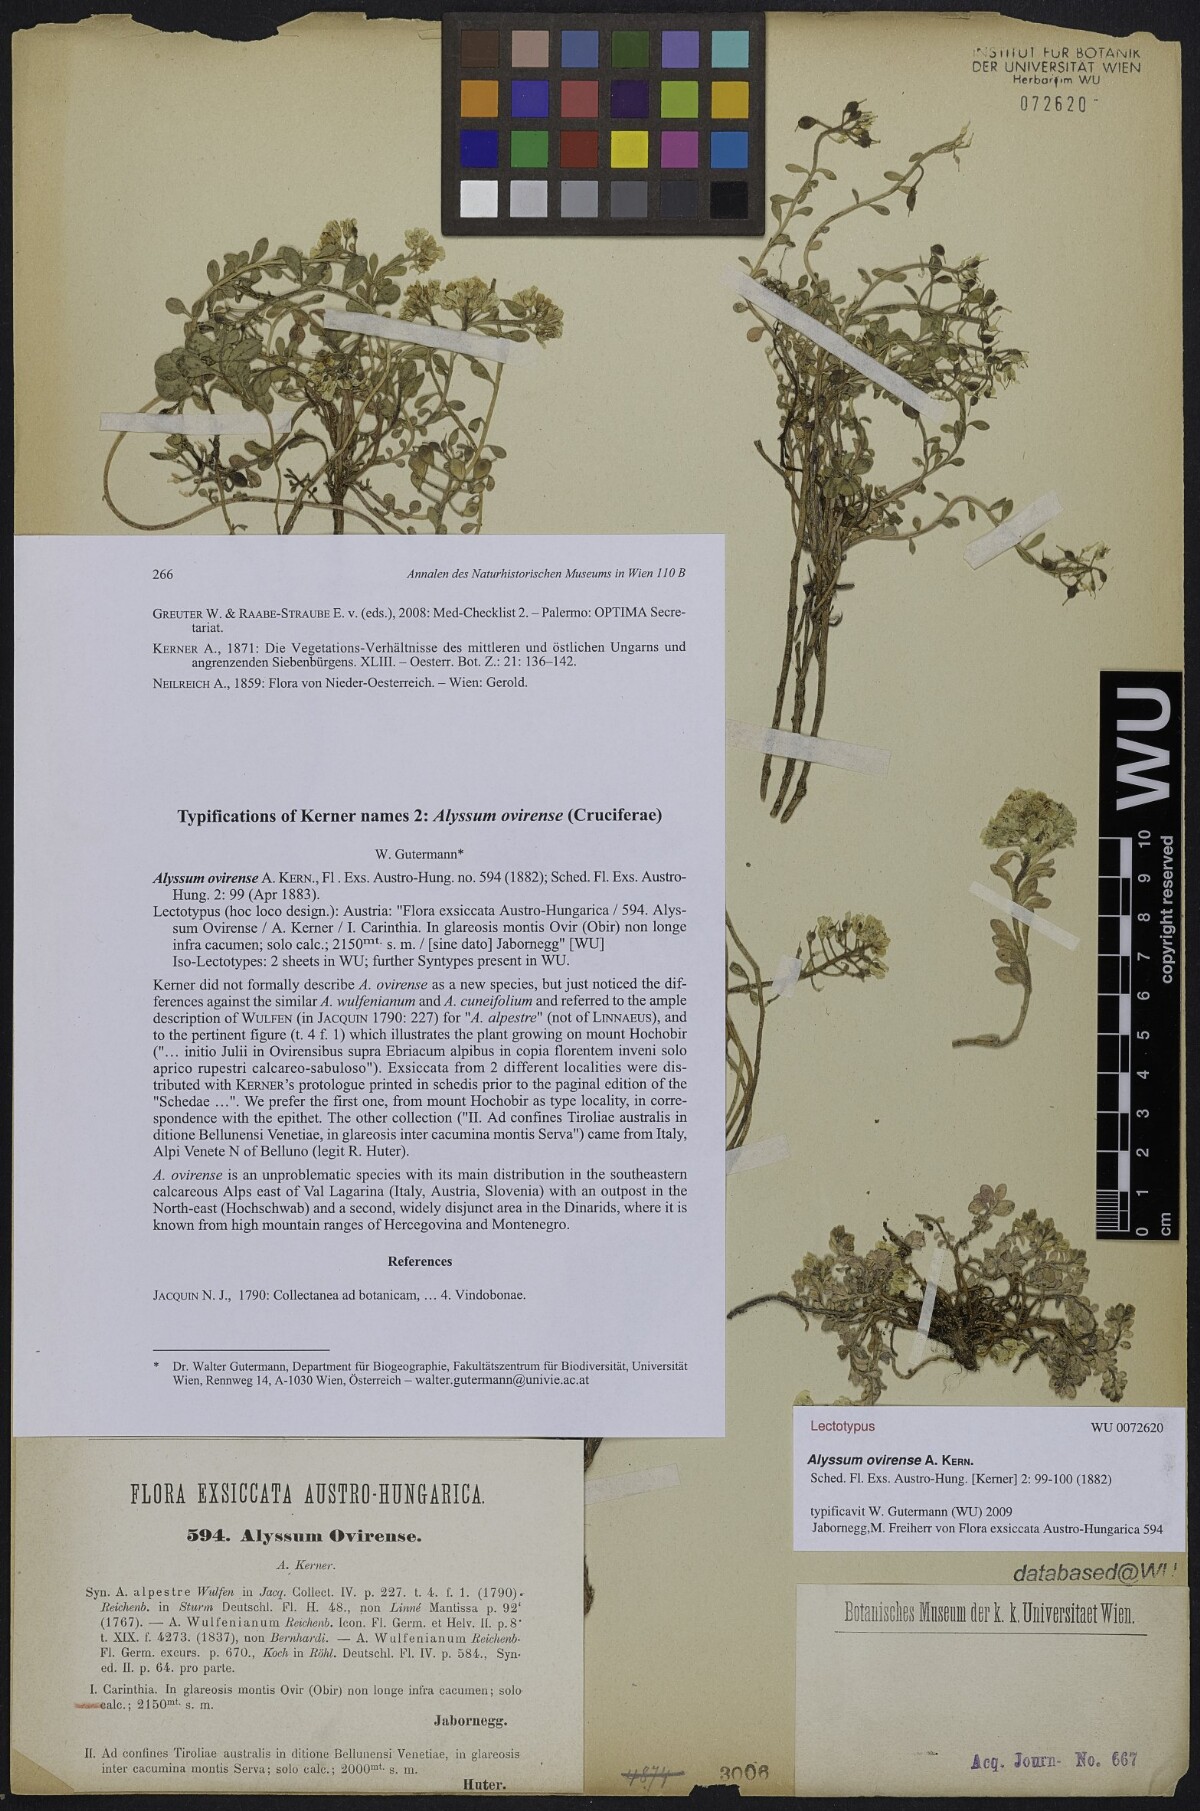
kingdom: Plantae
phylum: Tracheophyta
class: Magnoliopsida
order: Brassicales
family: Brassicaceae
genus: Alyssum
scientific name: Alyssum wulfenianum
